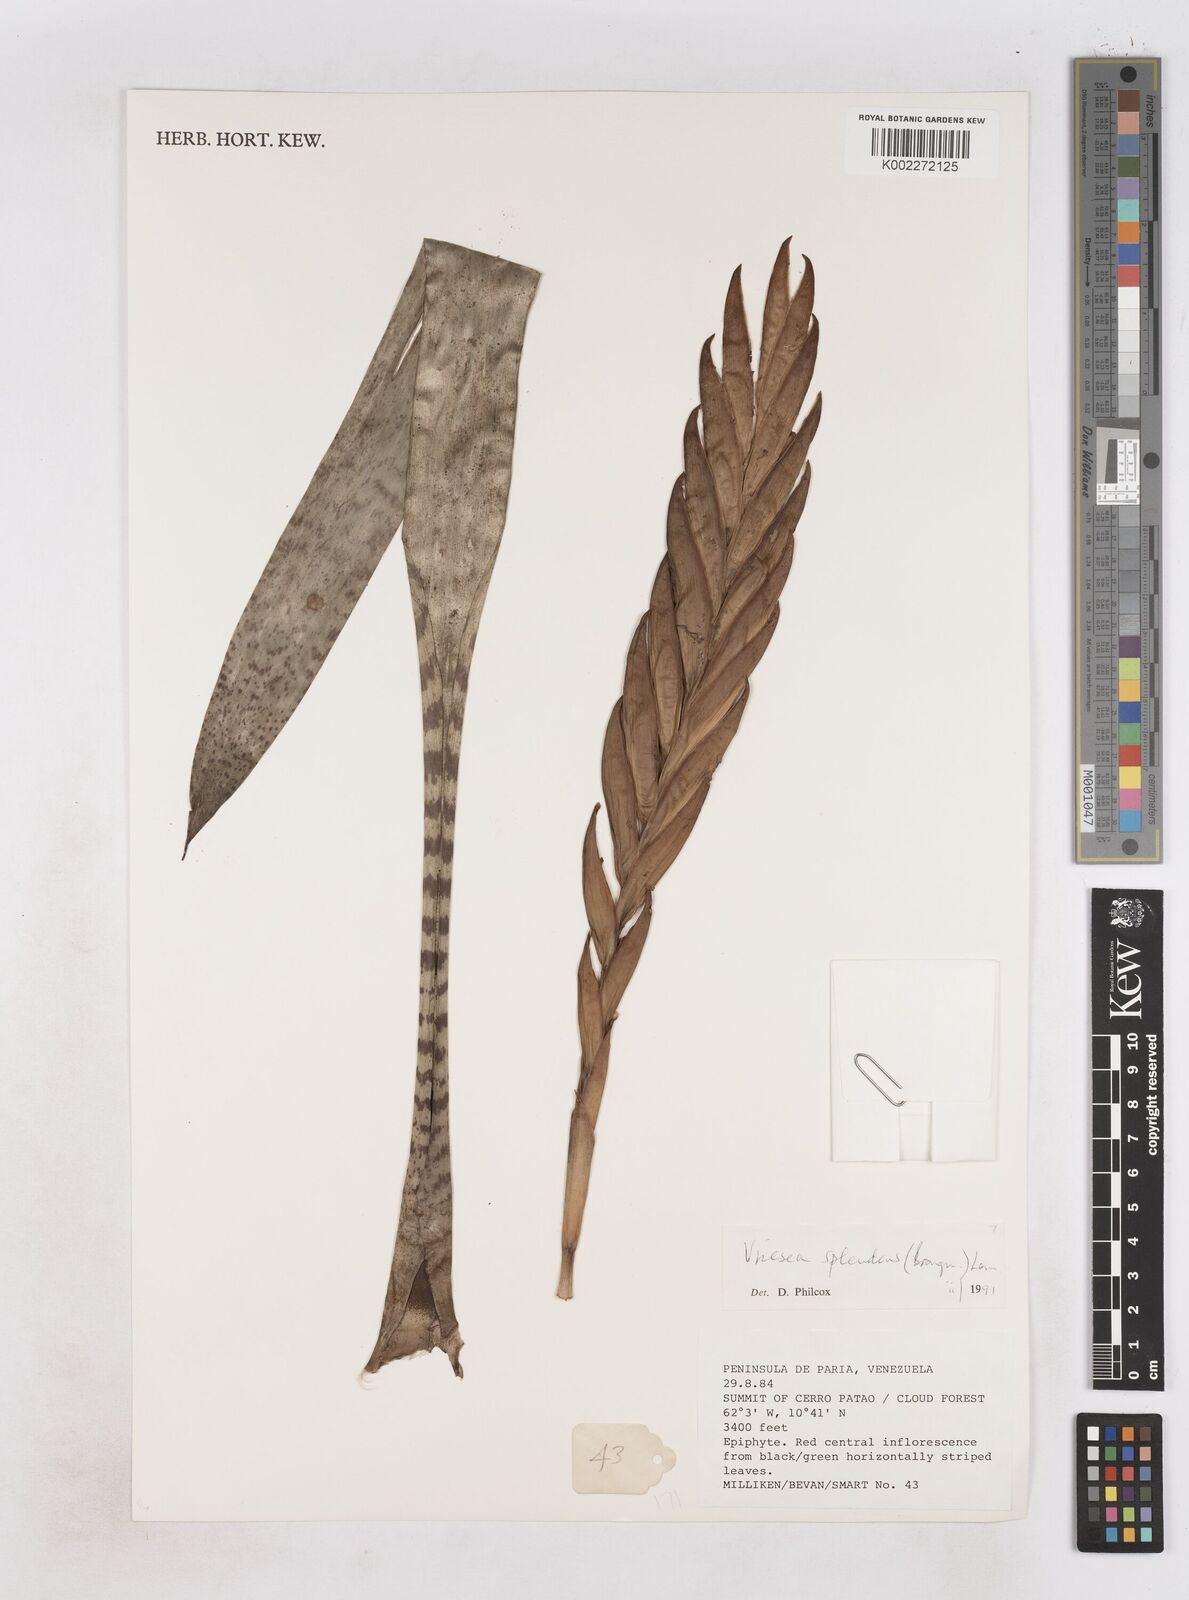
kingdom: Plantae
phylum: Tracheophyta
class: Liliopsida
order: Poales
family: Bromeliaceae
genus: Lutheria
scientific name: Lutheria splendens
